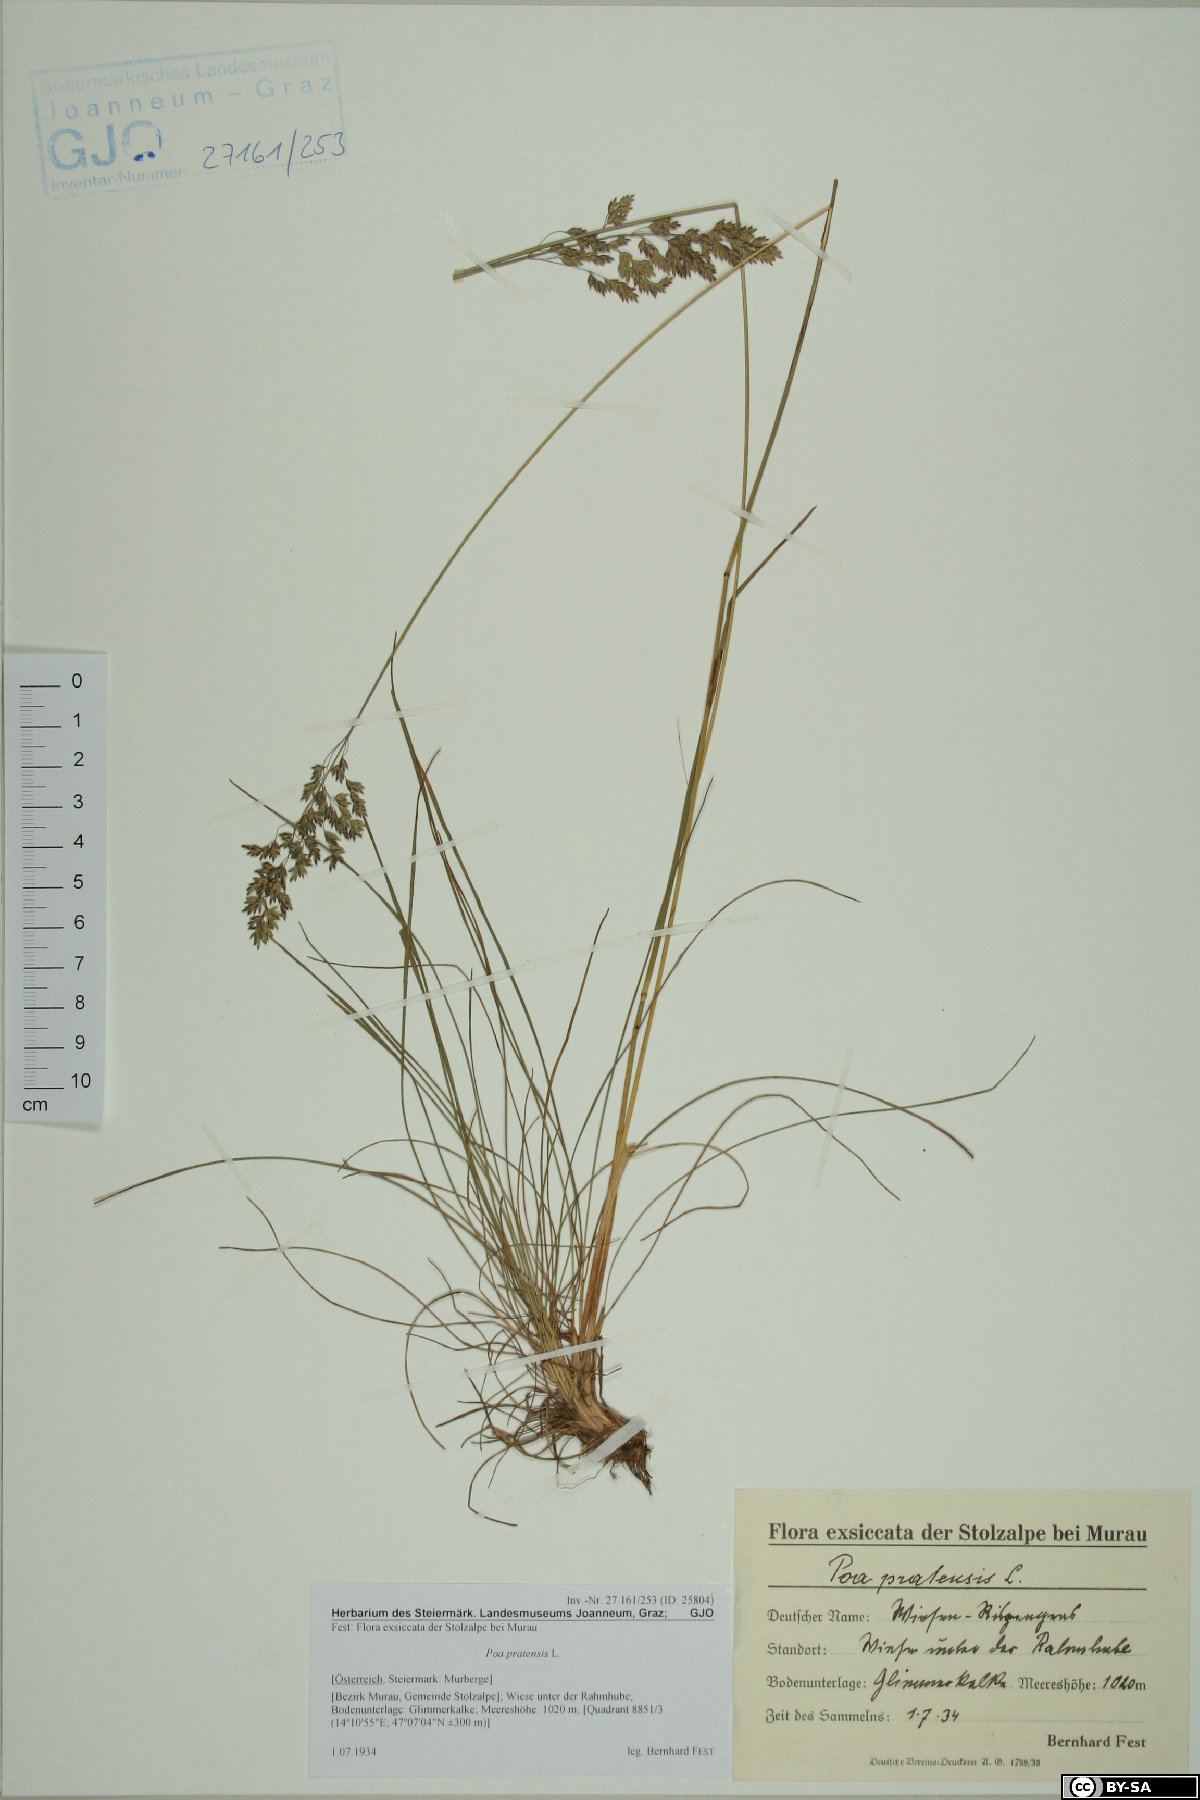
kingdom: Plantae
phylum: Tracheophyta
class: Liliopsida
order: Poales
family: Poaceae
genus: Poa
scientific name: Poa pratensis
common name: Kentucky bluegrass
